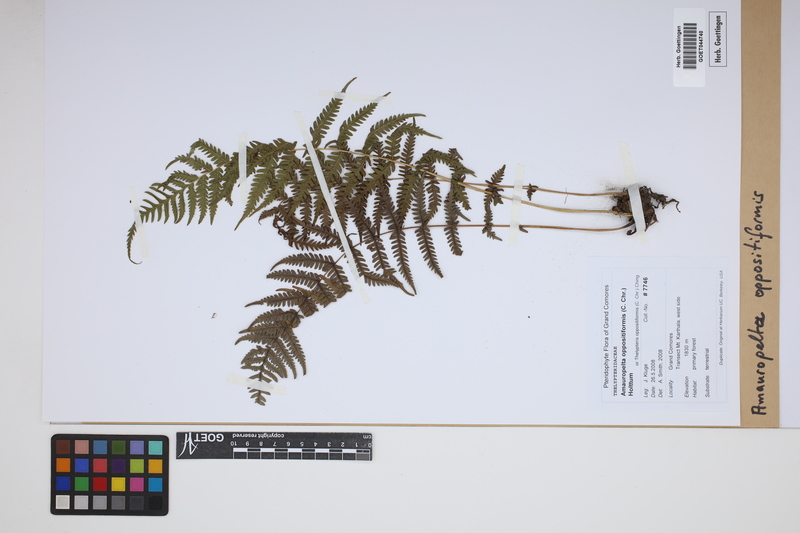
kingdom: Plantae
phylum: Tracheophyta
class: Polypodiopsida
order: Polypodiales
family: Thelypteridaceae
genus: Amauropelta
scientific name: Amauropelta oppositiformis
